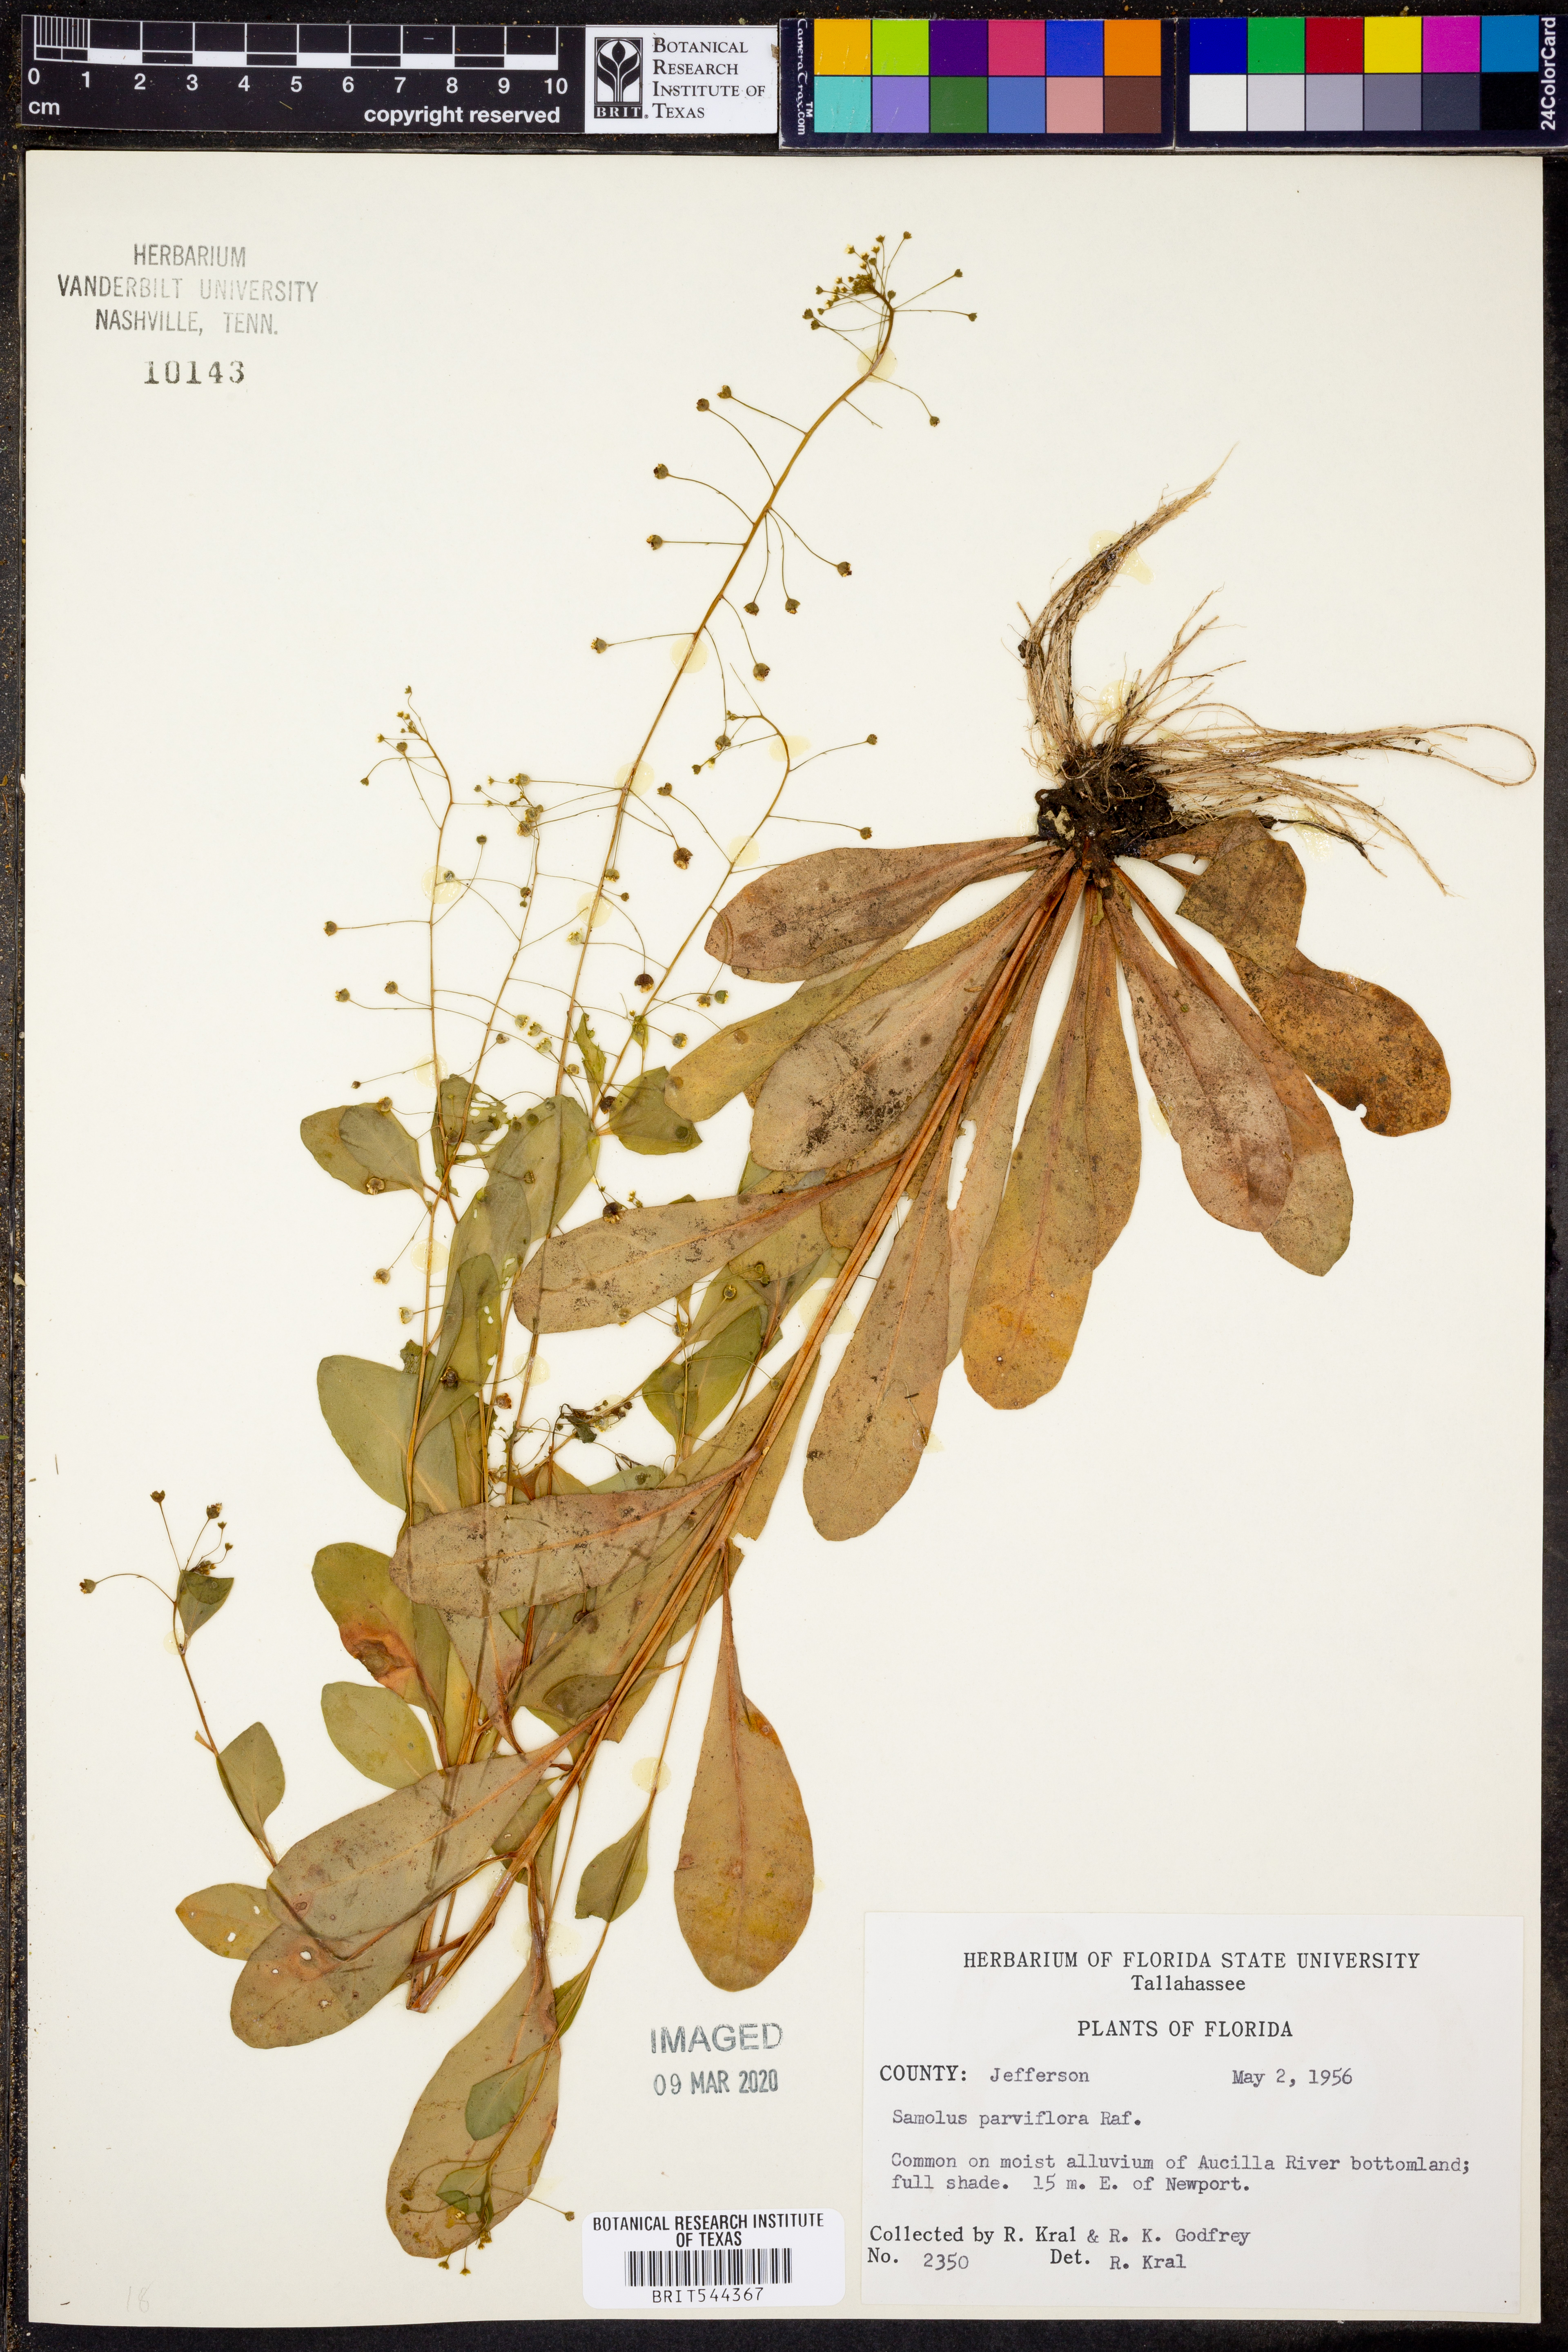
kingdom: Plantae
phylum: Tracheophyta
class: Magnoliopsida
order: Ericales
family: Primulaceae
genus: Samolus
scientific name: Samolus parviflorus
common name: False water pimpernel
